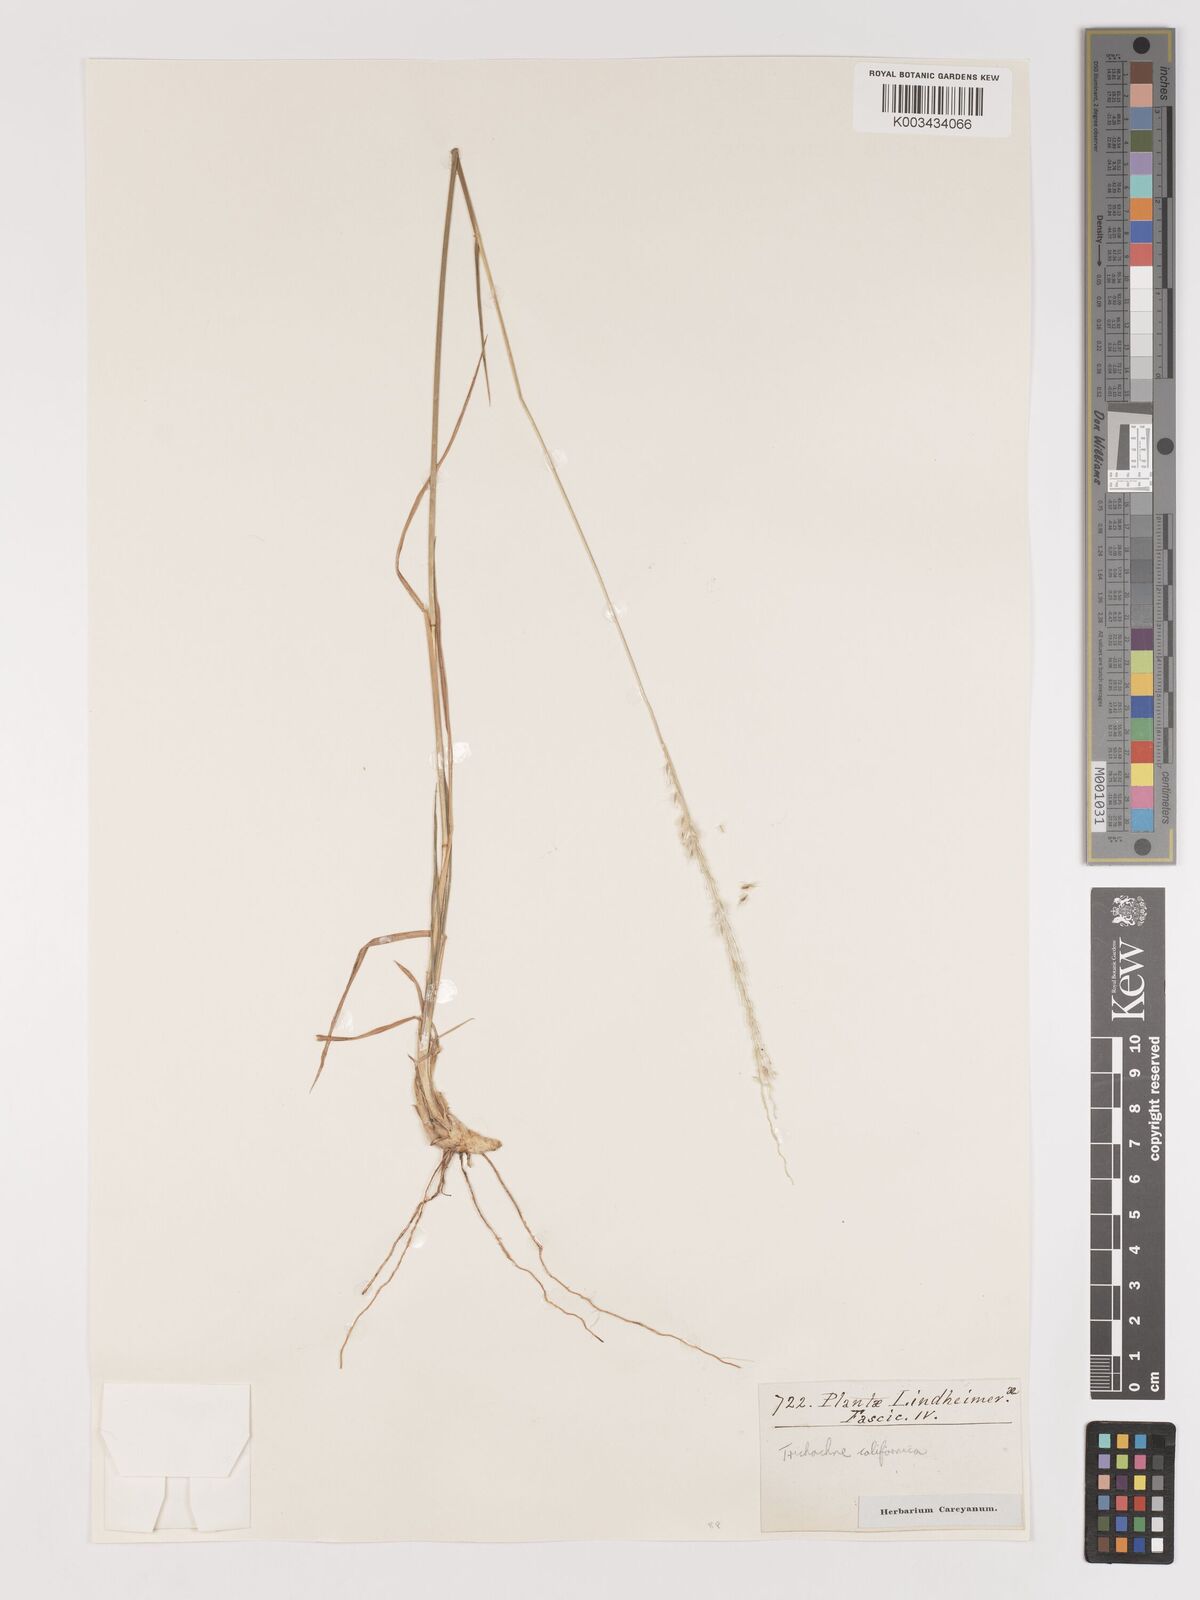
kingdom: Plantae
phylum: Tracheophyta
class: Liliopsida
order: Poales
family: Poaceae
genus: Digitaria
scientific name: Digitaria californica
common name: Arizona cottontop
